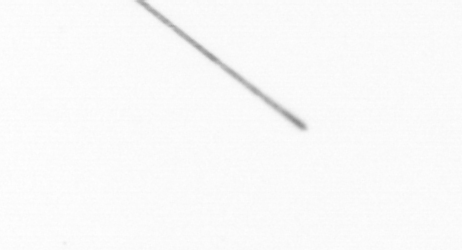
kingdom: Chromista
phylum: Ochrophyta
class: Bacillariophyceae
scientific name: Bacillariophyceae
